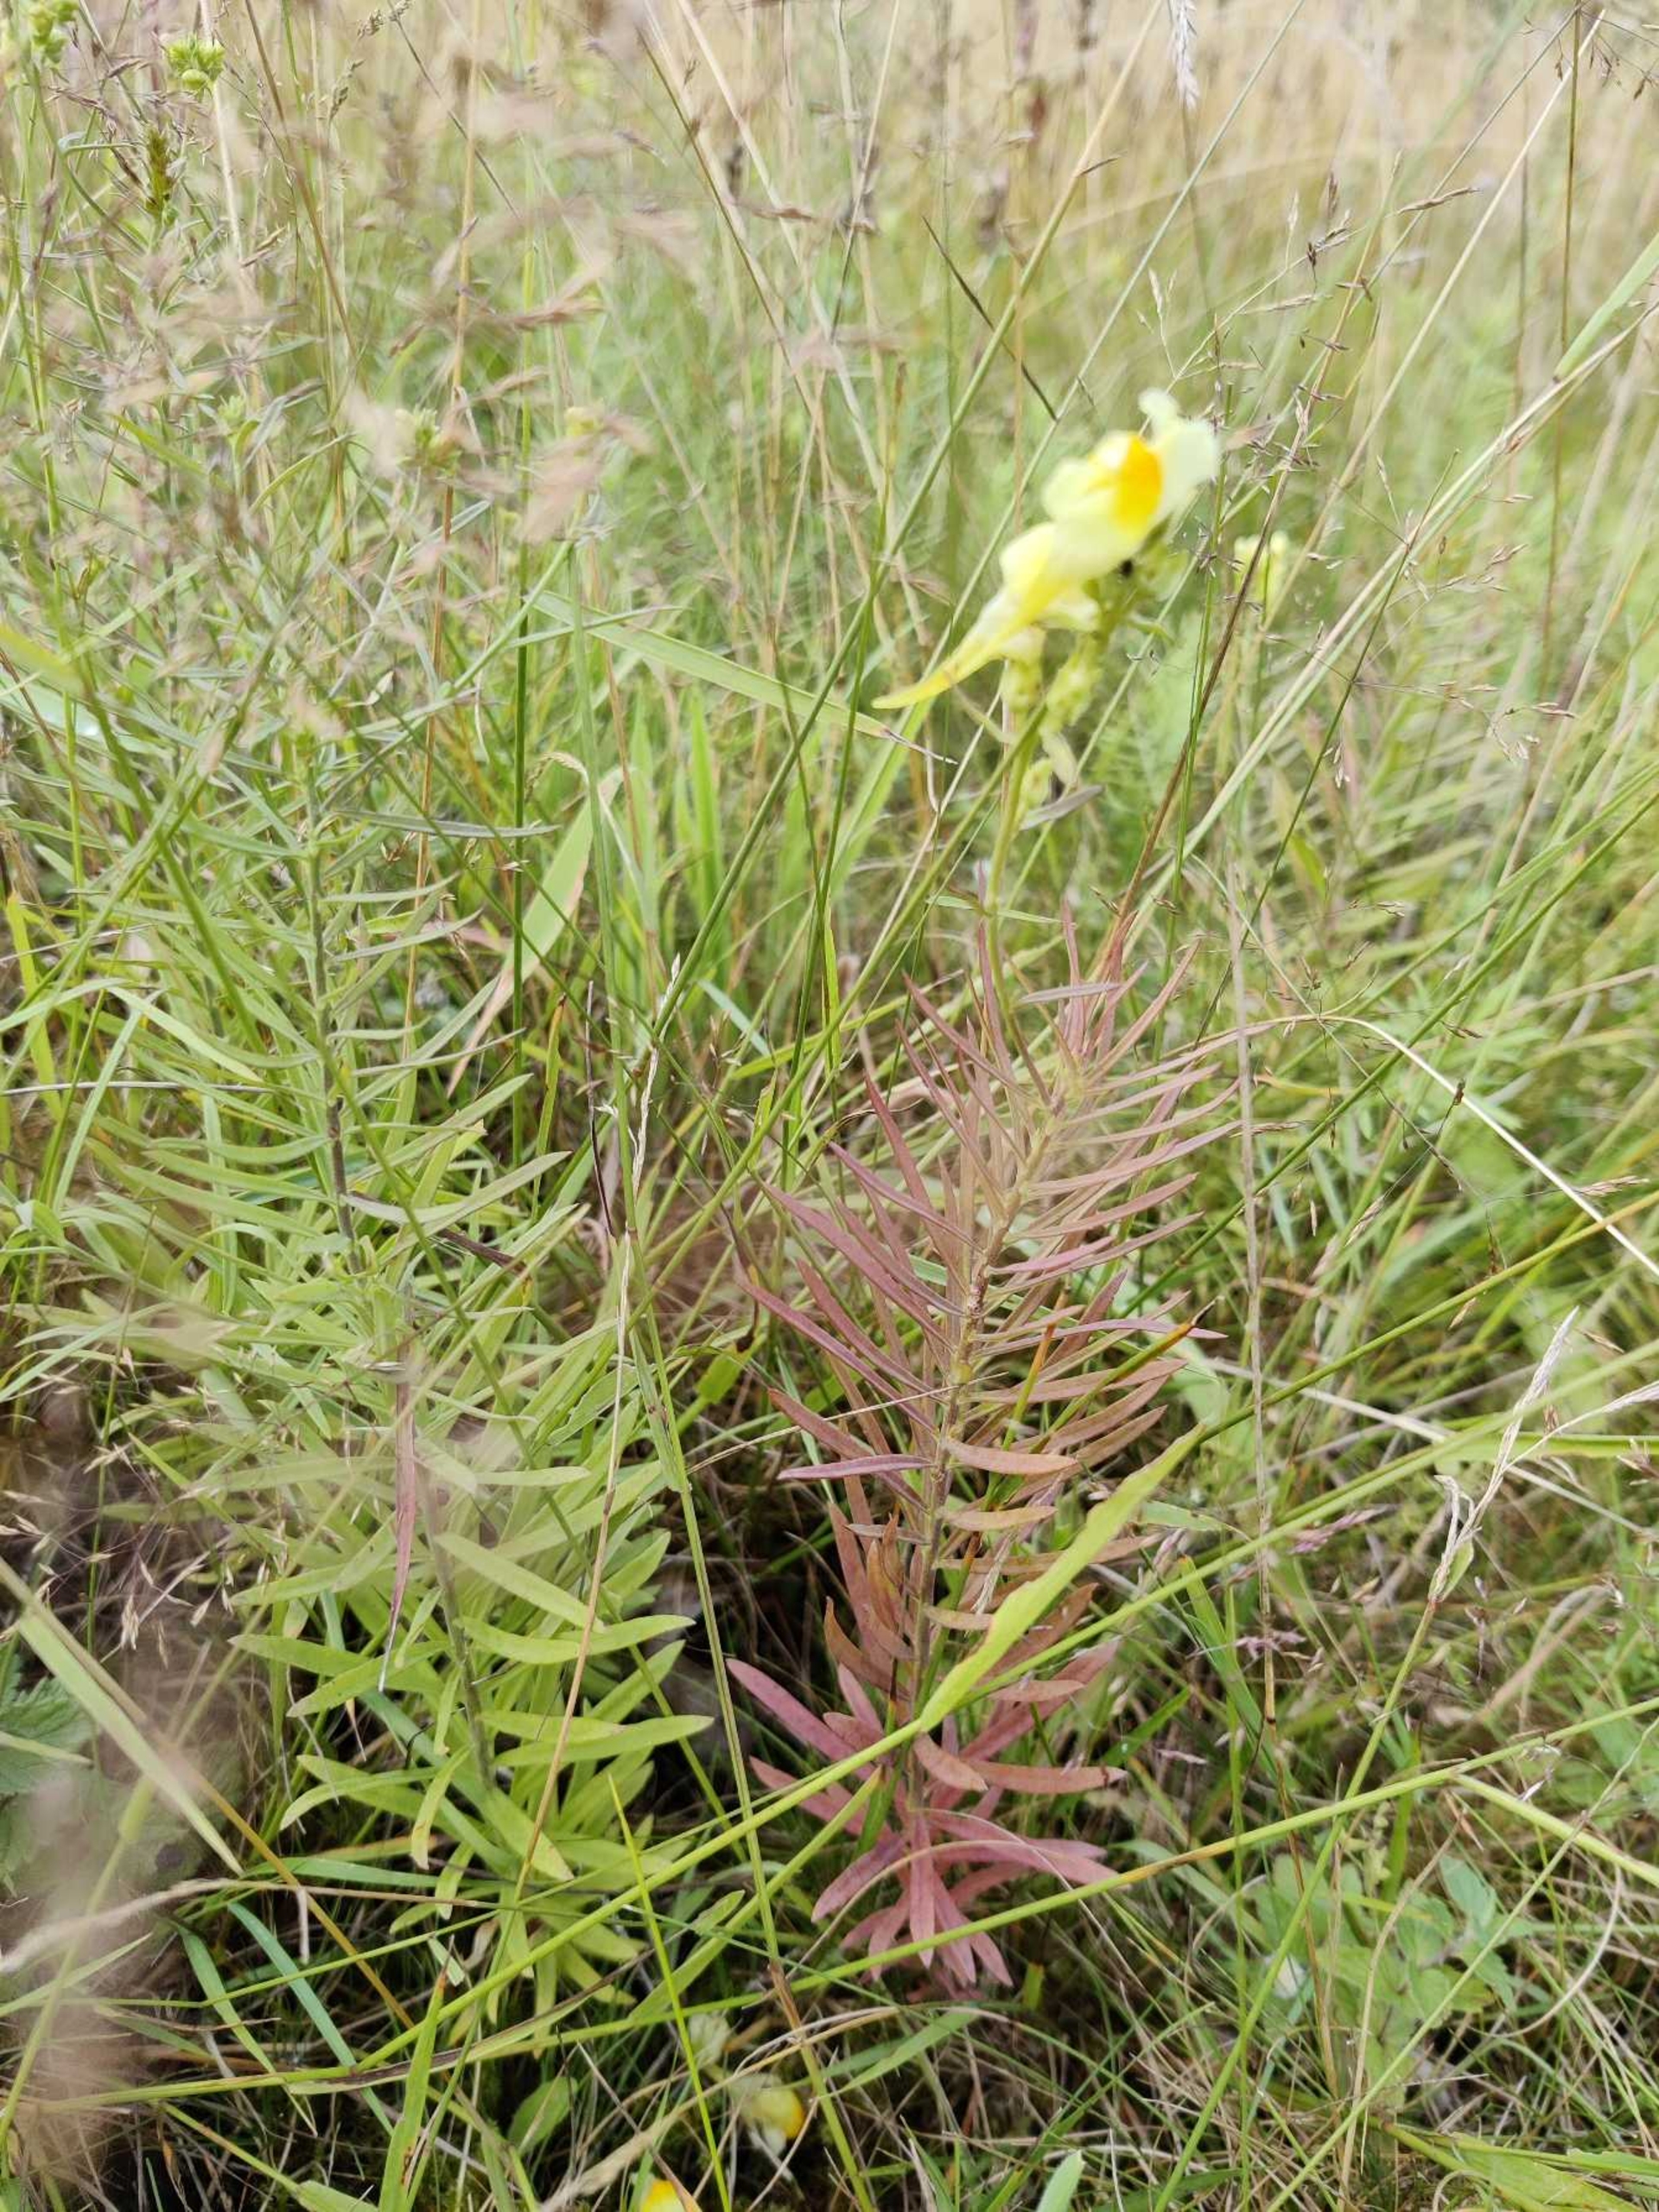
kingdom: Plantae
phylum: Tracheophyta
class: Magnoliopsida
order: Lamiales
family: Plantaginaceae
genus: Linaria
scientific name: Linaria vulgaris
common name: Almindelig torskemund
